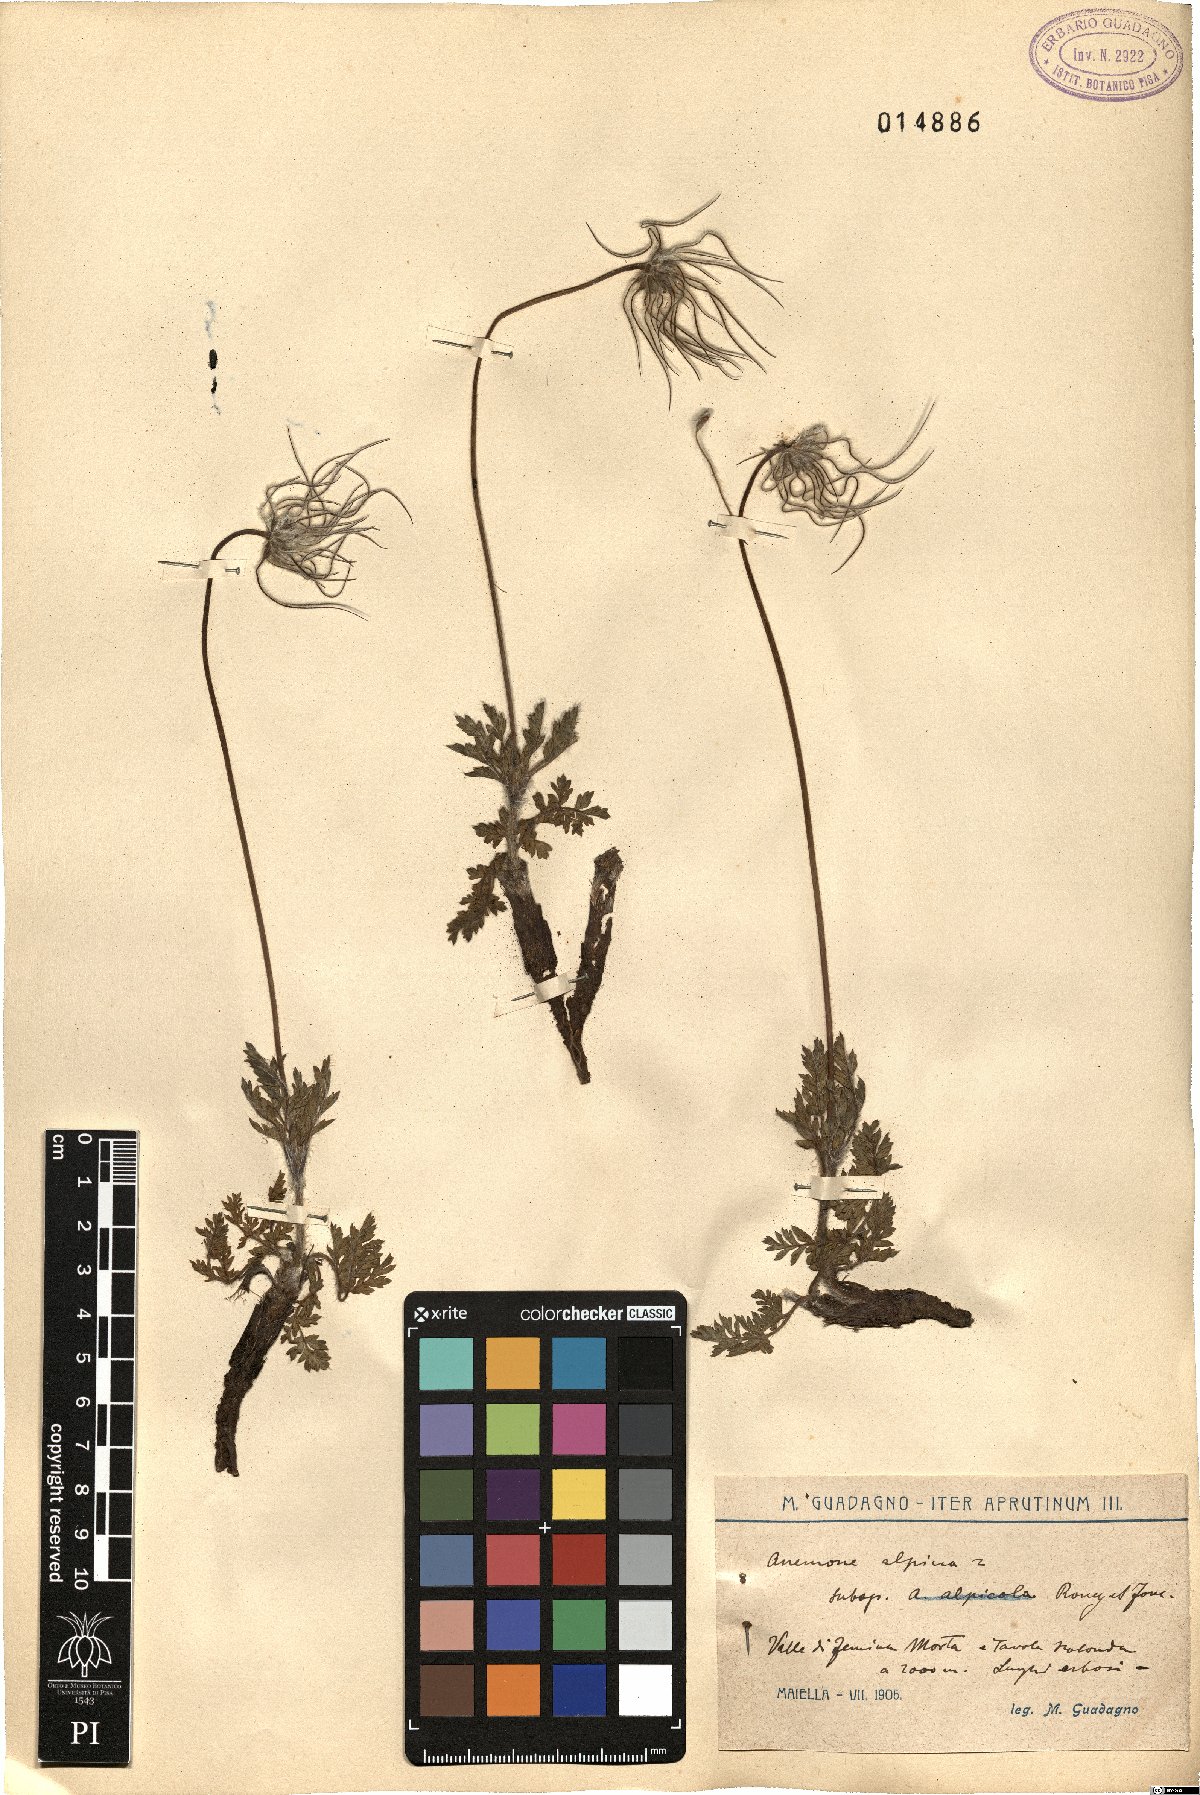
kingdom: Plantae
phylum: Tracheophyta
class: Magnoliopsida
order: Ranunculales
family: Ranunculaceae
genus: Pulsatilla
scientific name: Pulsatilla alpina
